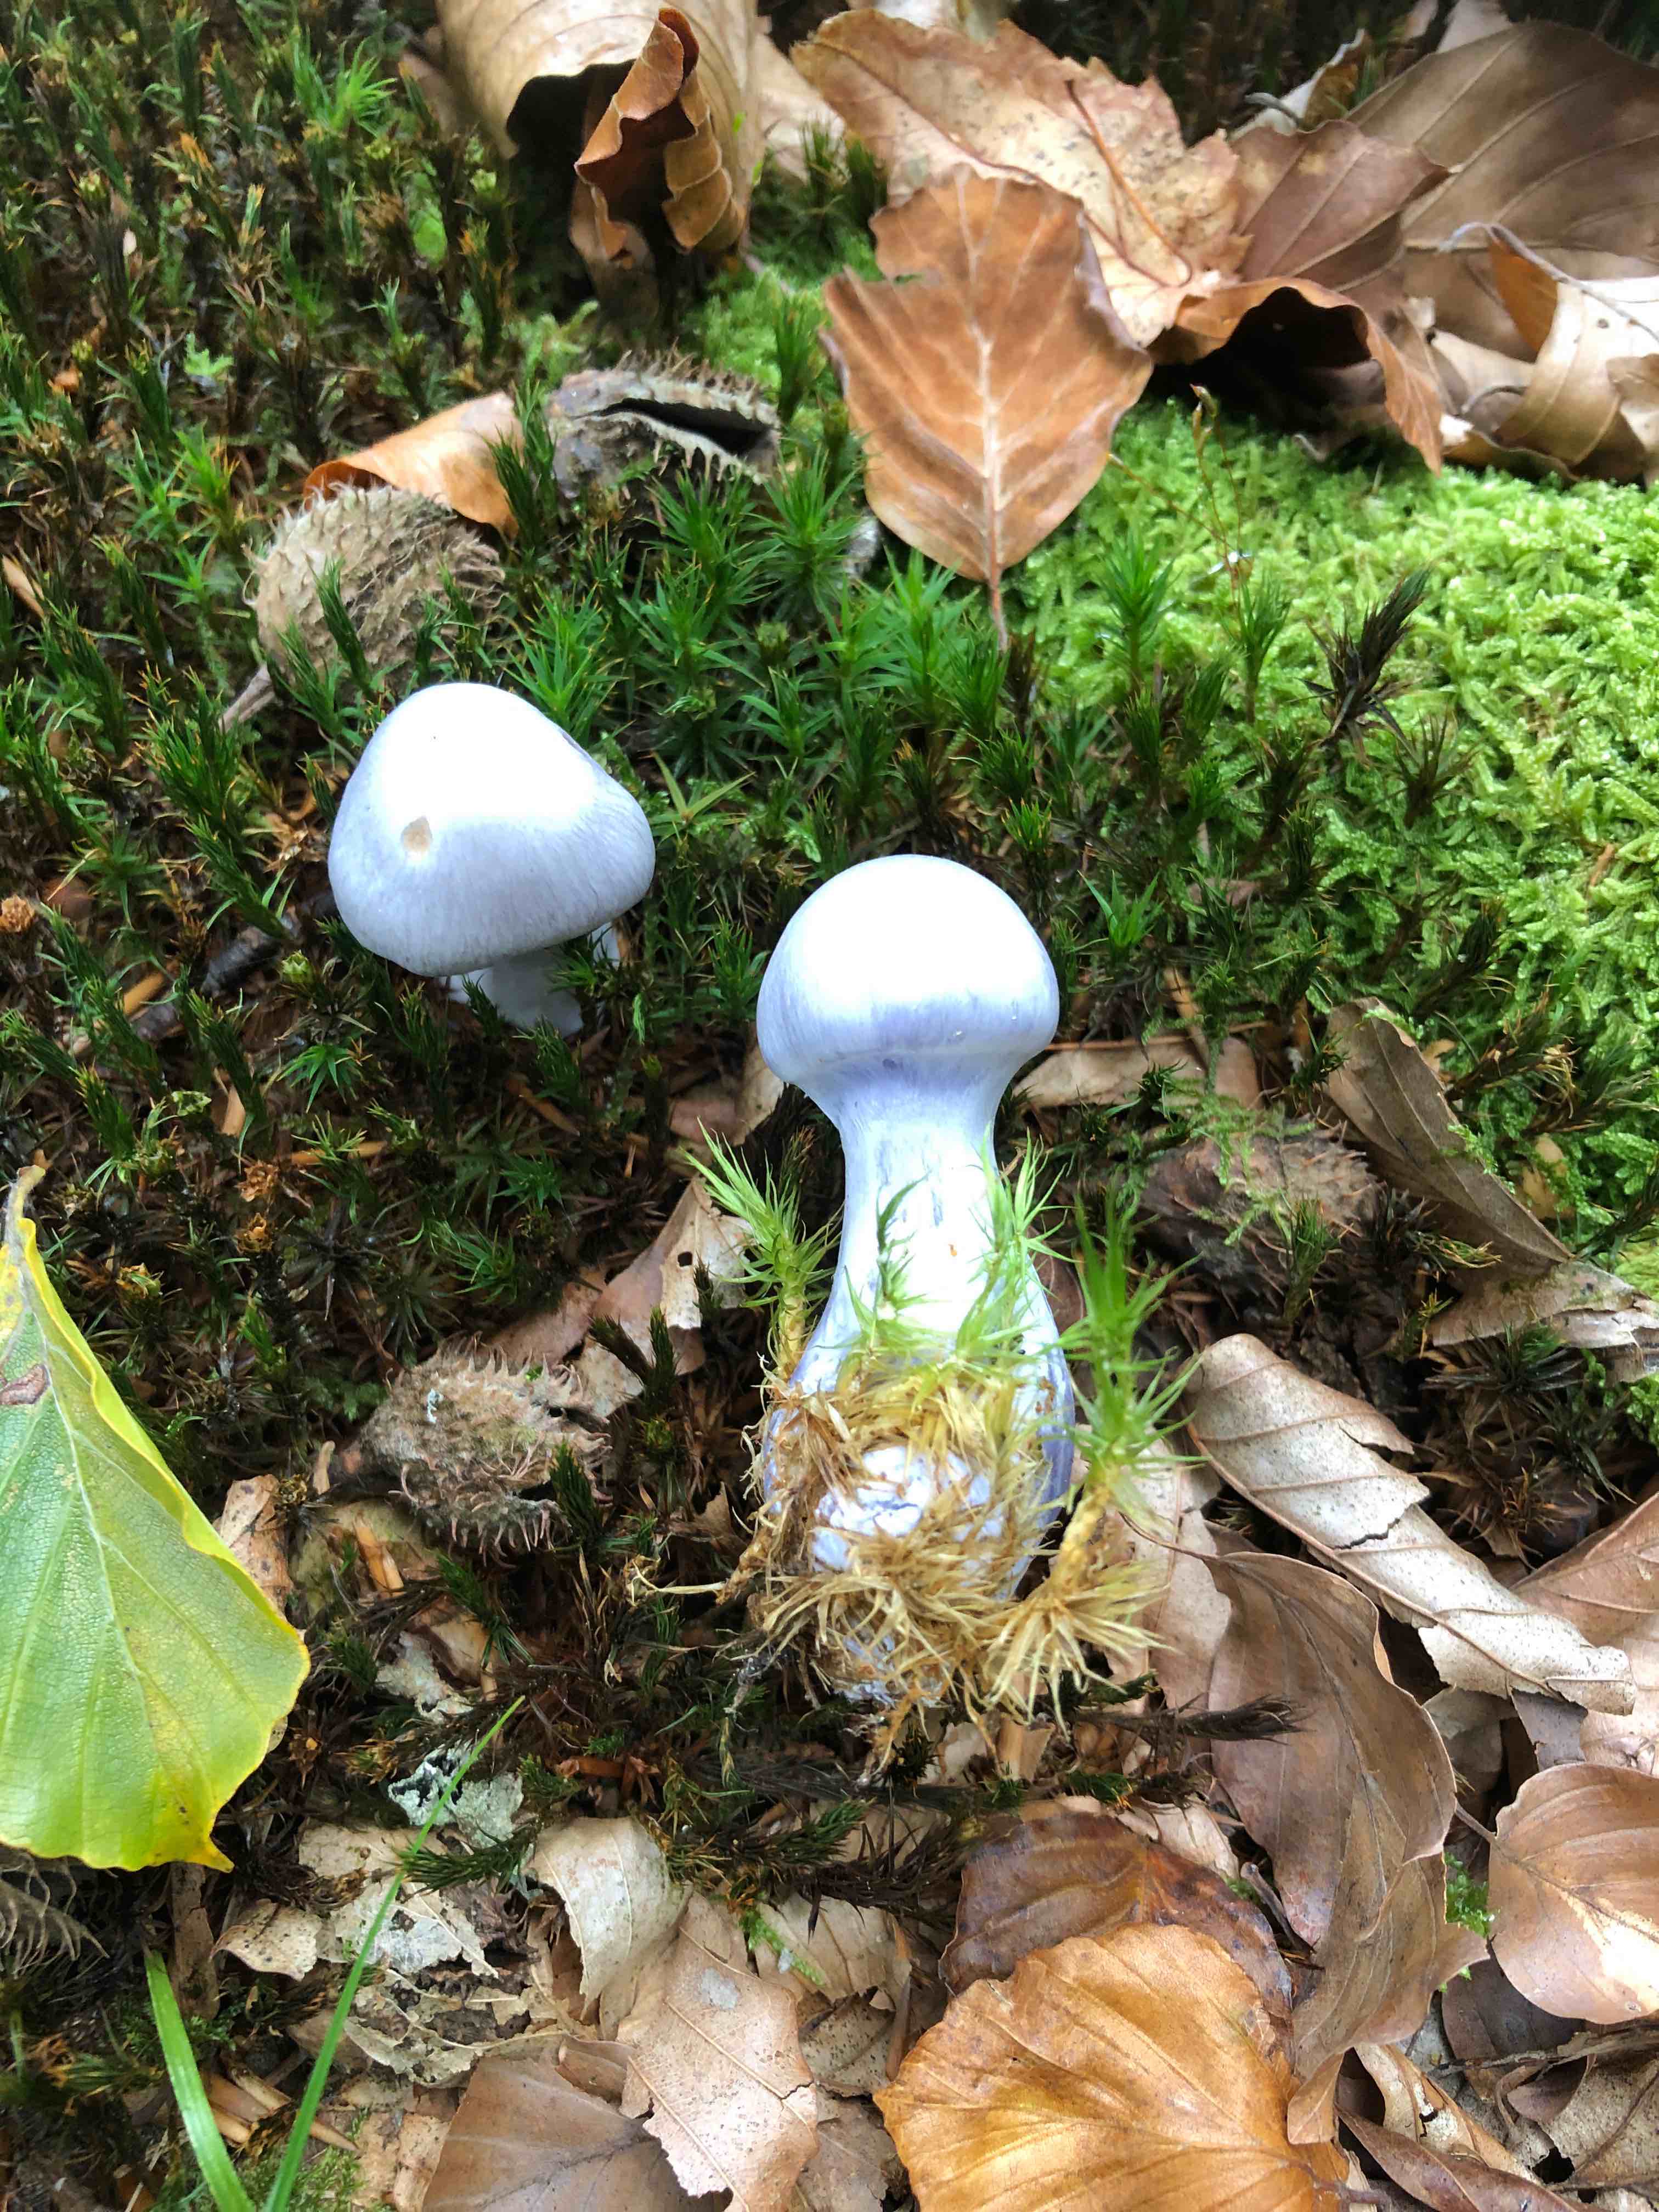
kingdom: Fungi
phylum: Basidiomycota
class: Agaricomycetes
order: Agaricales
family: Cortinariaceae
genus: Cortinarius
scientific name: Cortinarius
